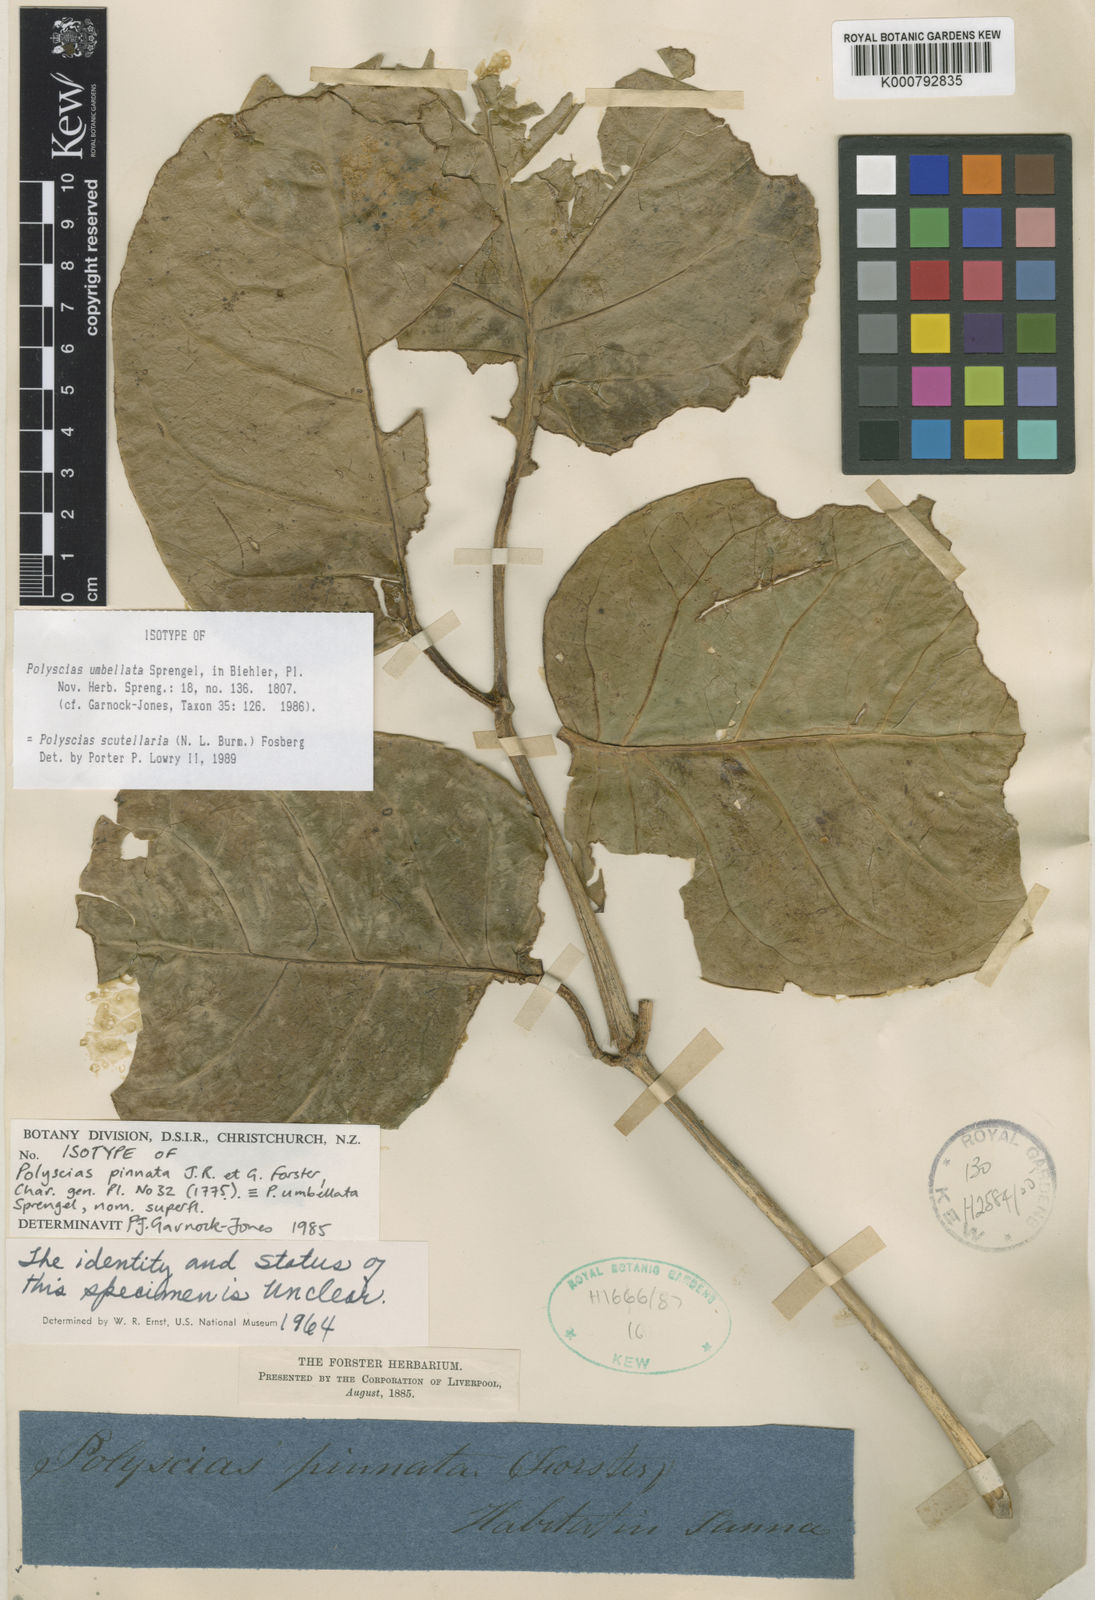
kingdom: Plantae
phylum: Tracheophyta
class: Magnoliopsida
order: Apiales
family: Araliaceae
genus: Polyscias
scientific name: Polyscias scutellaria
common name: Dinnerplate-aralia
